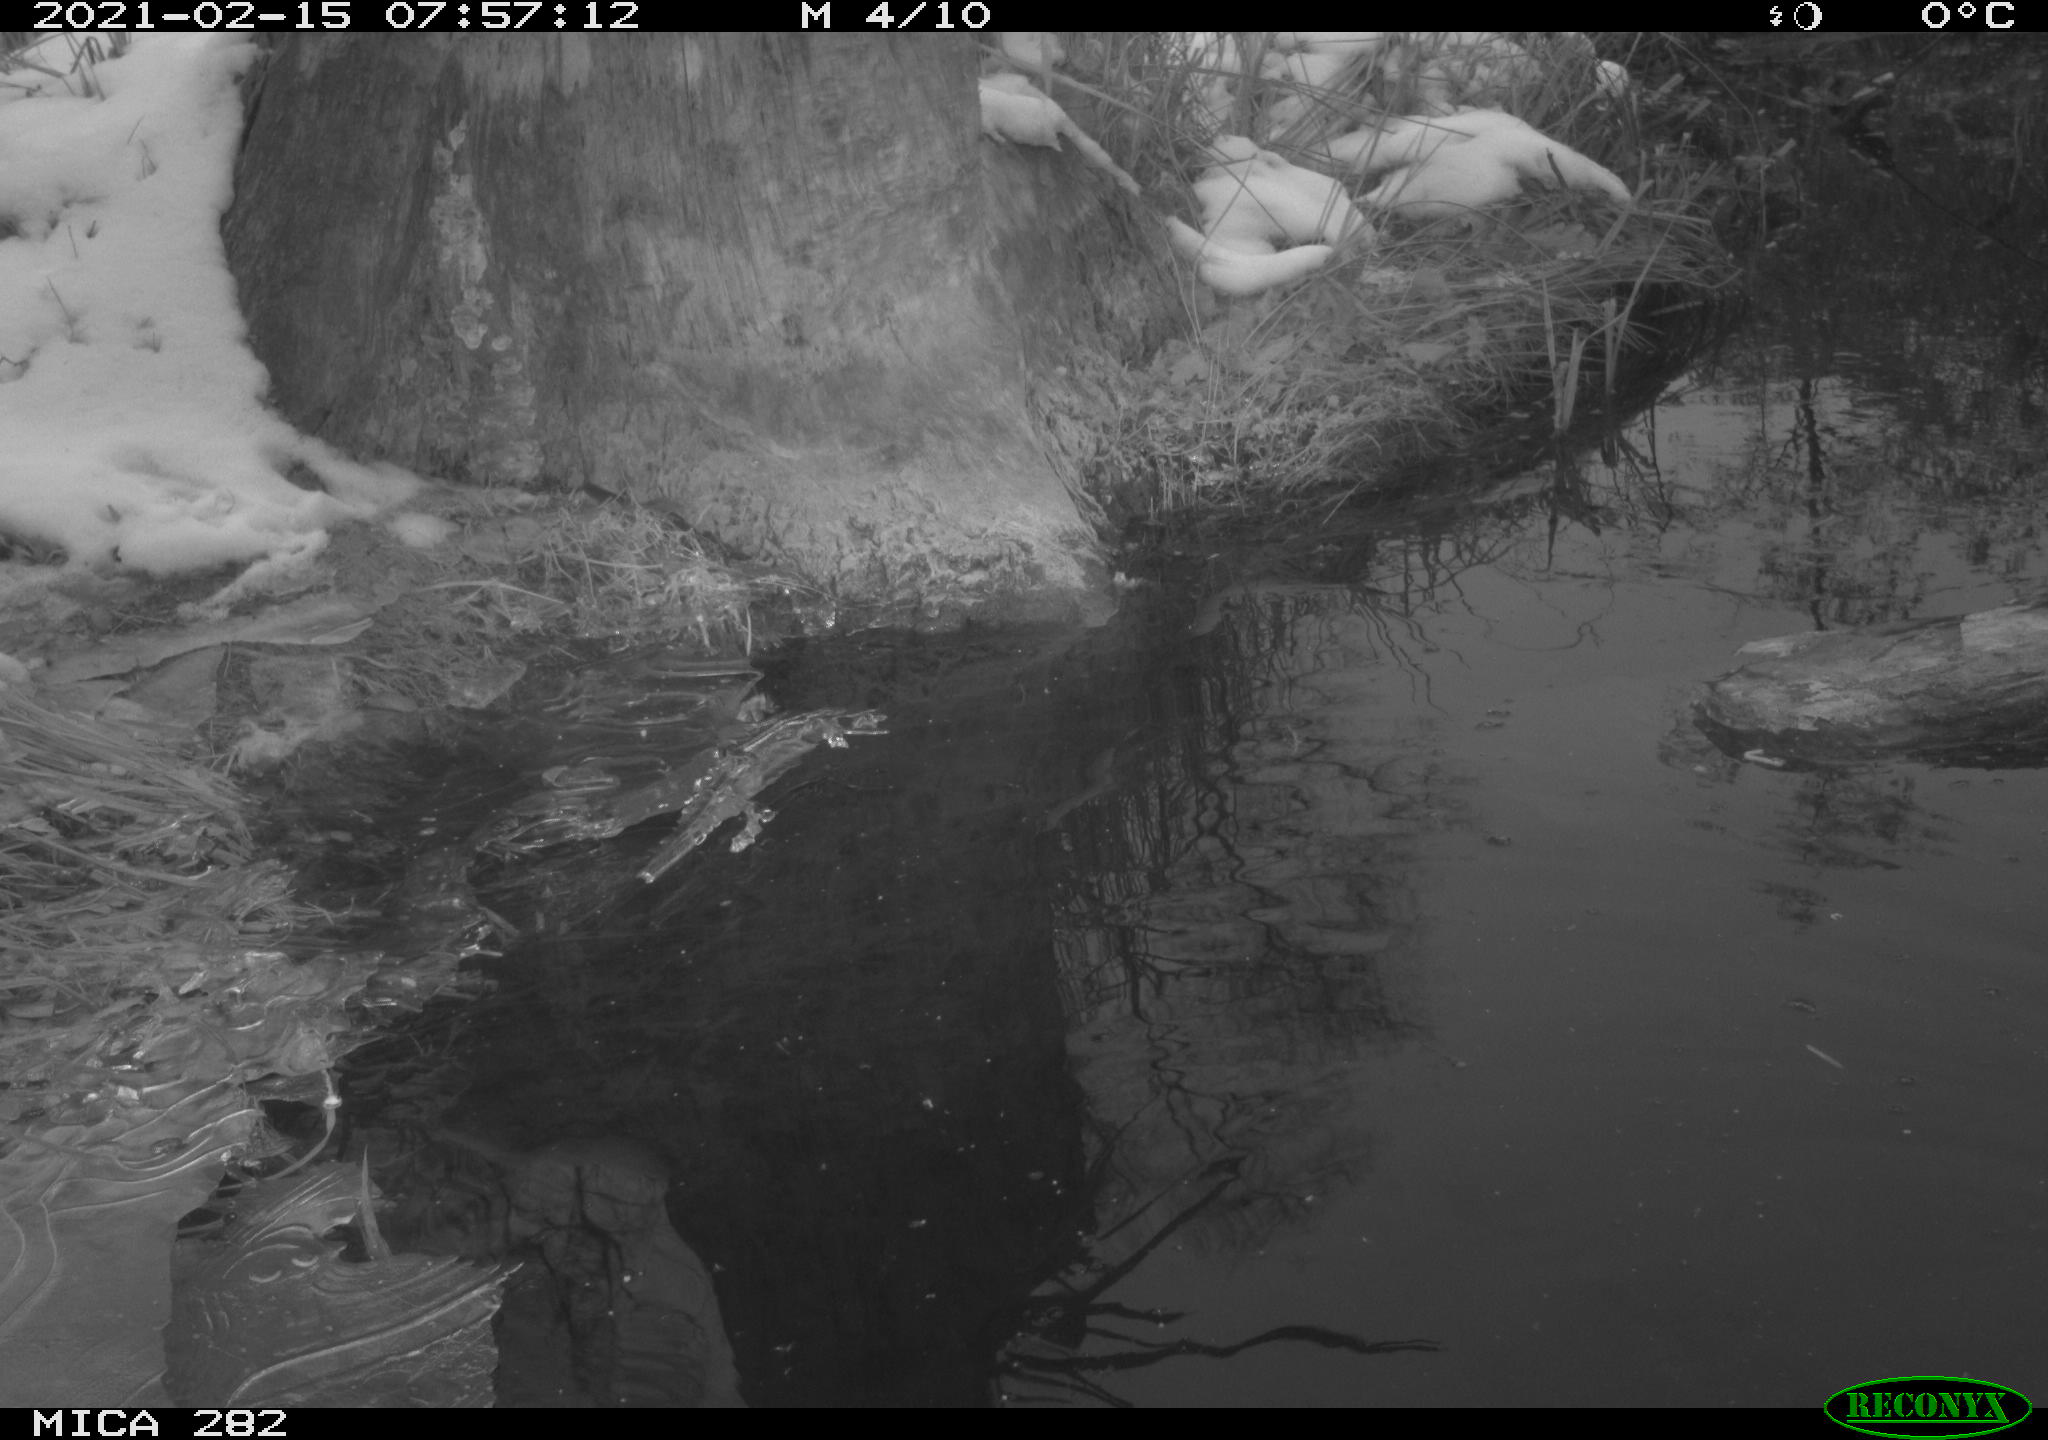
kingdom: Animalia
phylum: Chordata
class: Aves
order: Gruiformes
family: Rallidae
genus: Gallinula
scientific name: Gallinula chloropus
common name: Common moorhen
